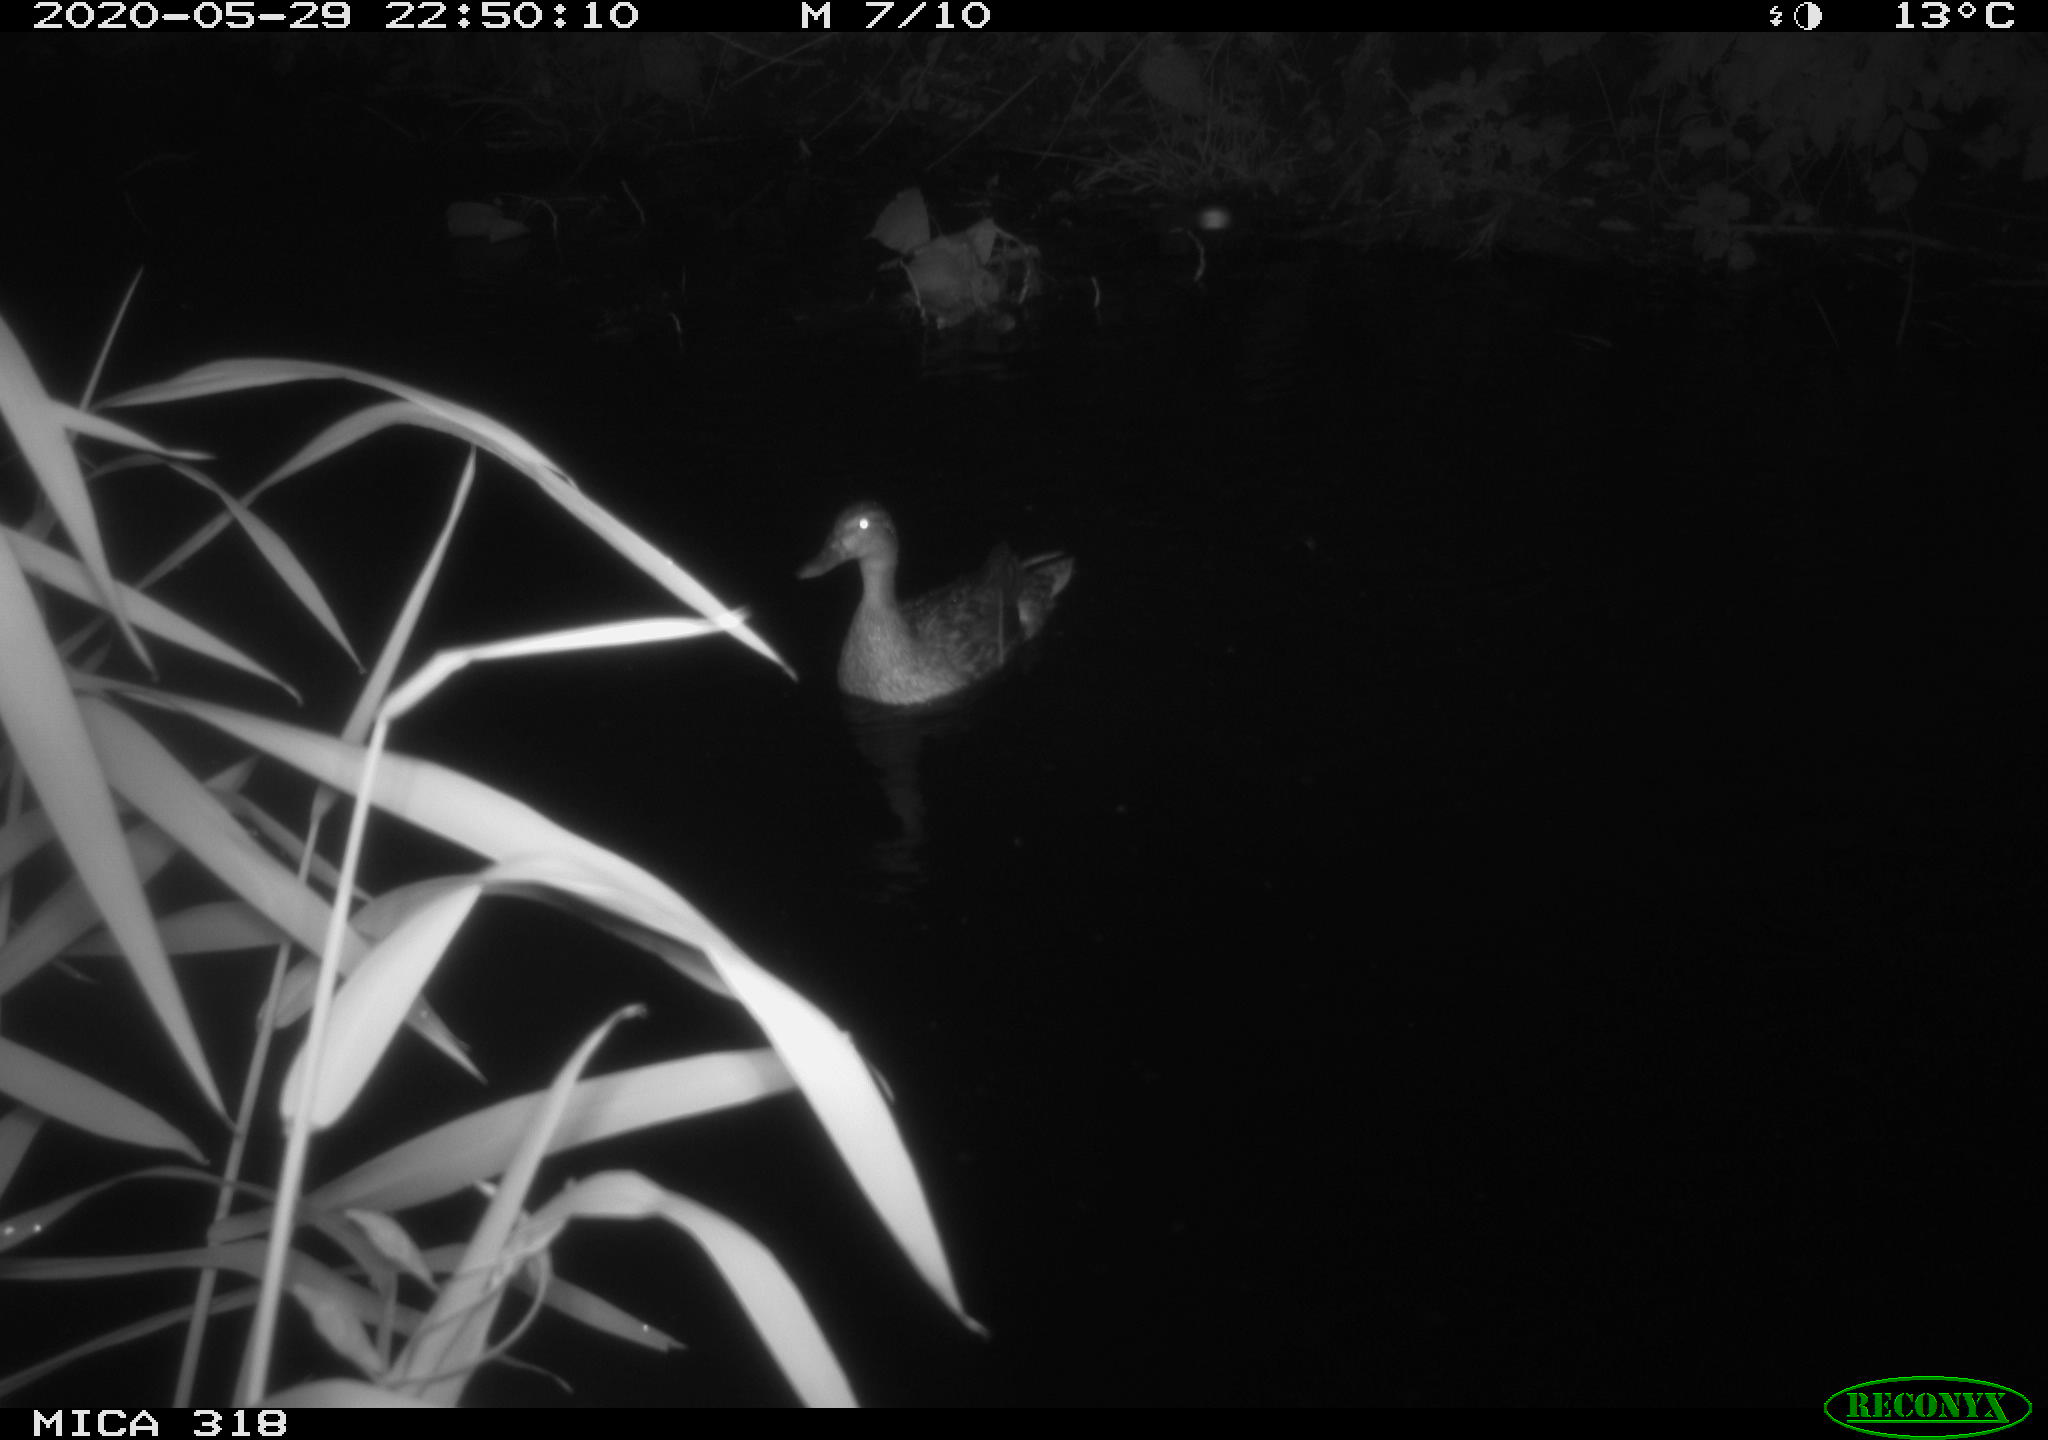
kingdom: Animalia
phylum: Chordata
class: Aves
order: Anseriformes
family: Anatidae
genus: Anas
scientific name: Anas platyrhynchos
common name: Mallard
